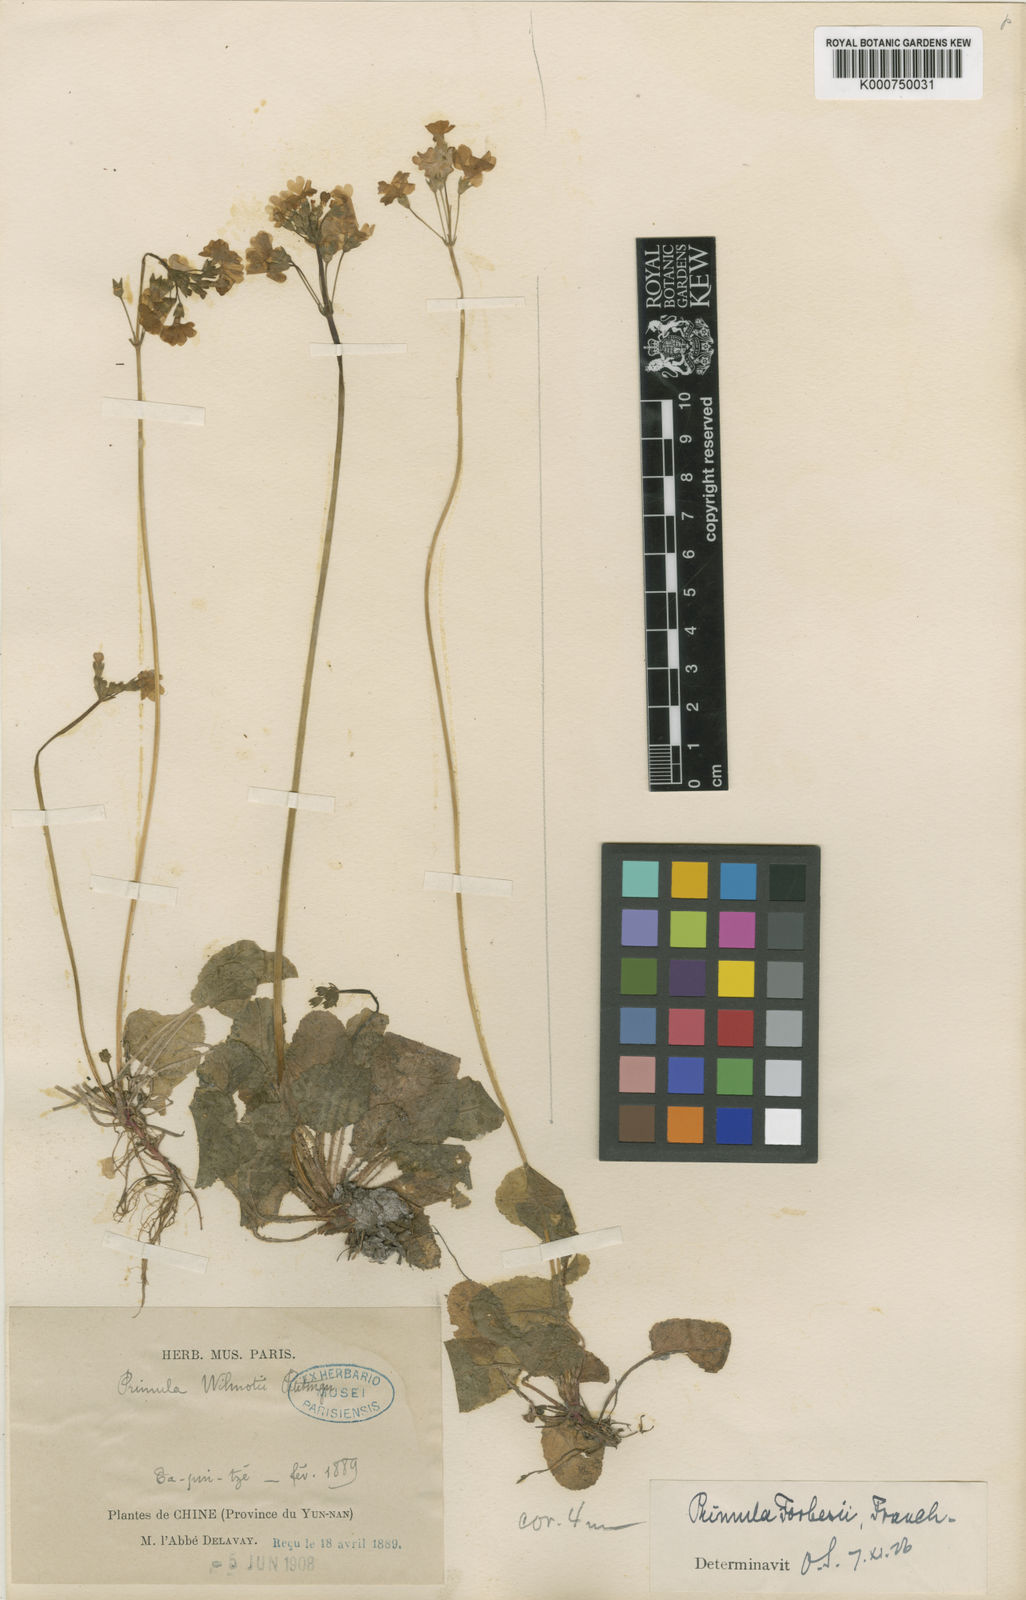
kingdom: Plantae
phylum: Tracheophyta
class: Magnoliopsida
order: Ericales
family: Primulaceae
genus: Primula
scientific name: Primula filipes
